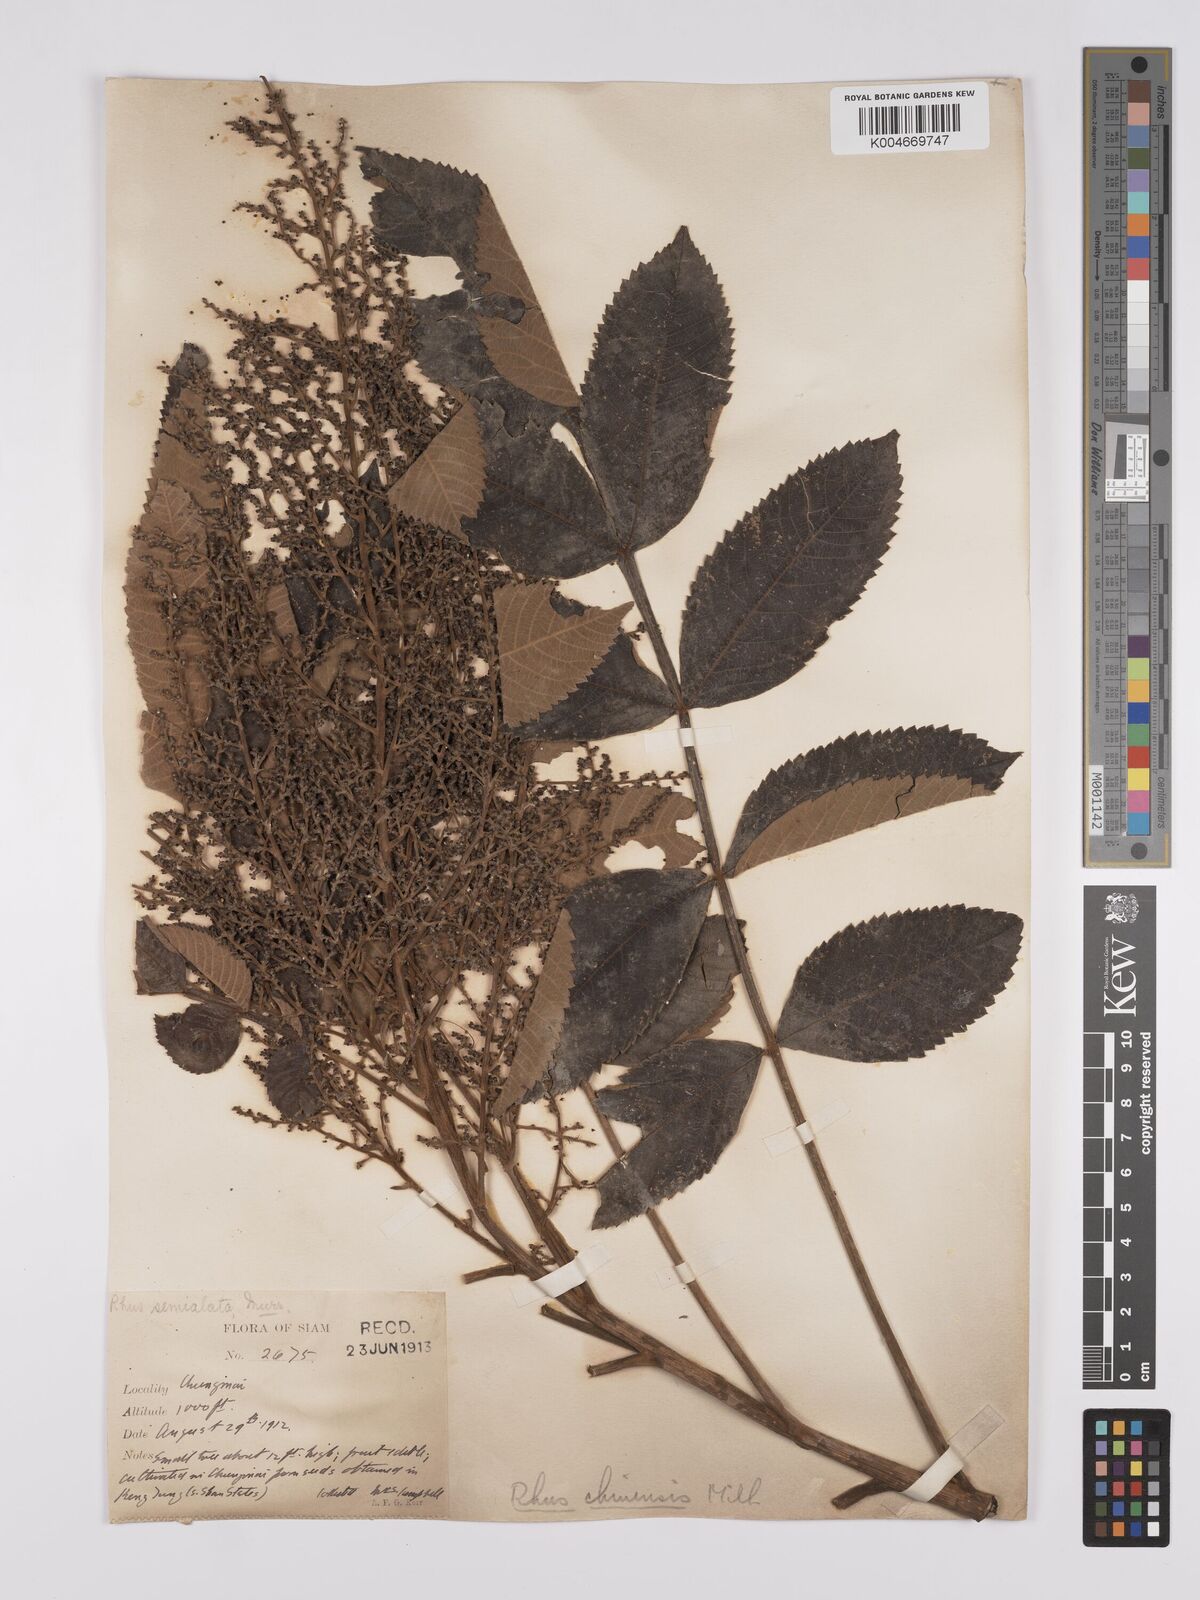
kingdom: Plantae
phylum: Tracheophyta
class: Magnoliopsida
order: Sapindales
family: Anacardiaceae
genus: Rhus
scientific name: Rhus chinensis
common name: Chinese gall
